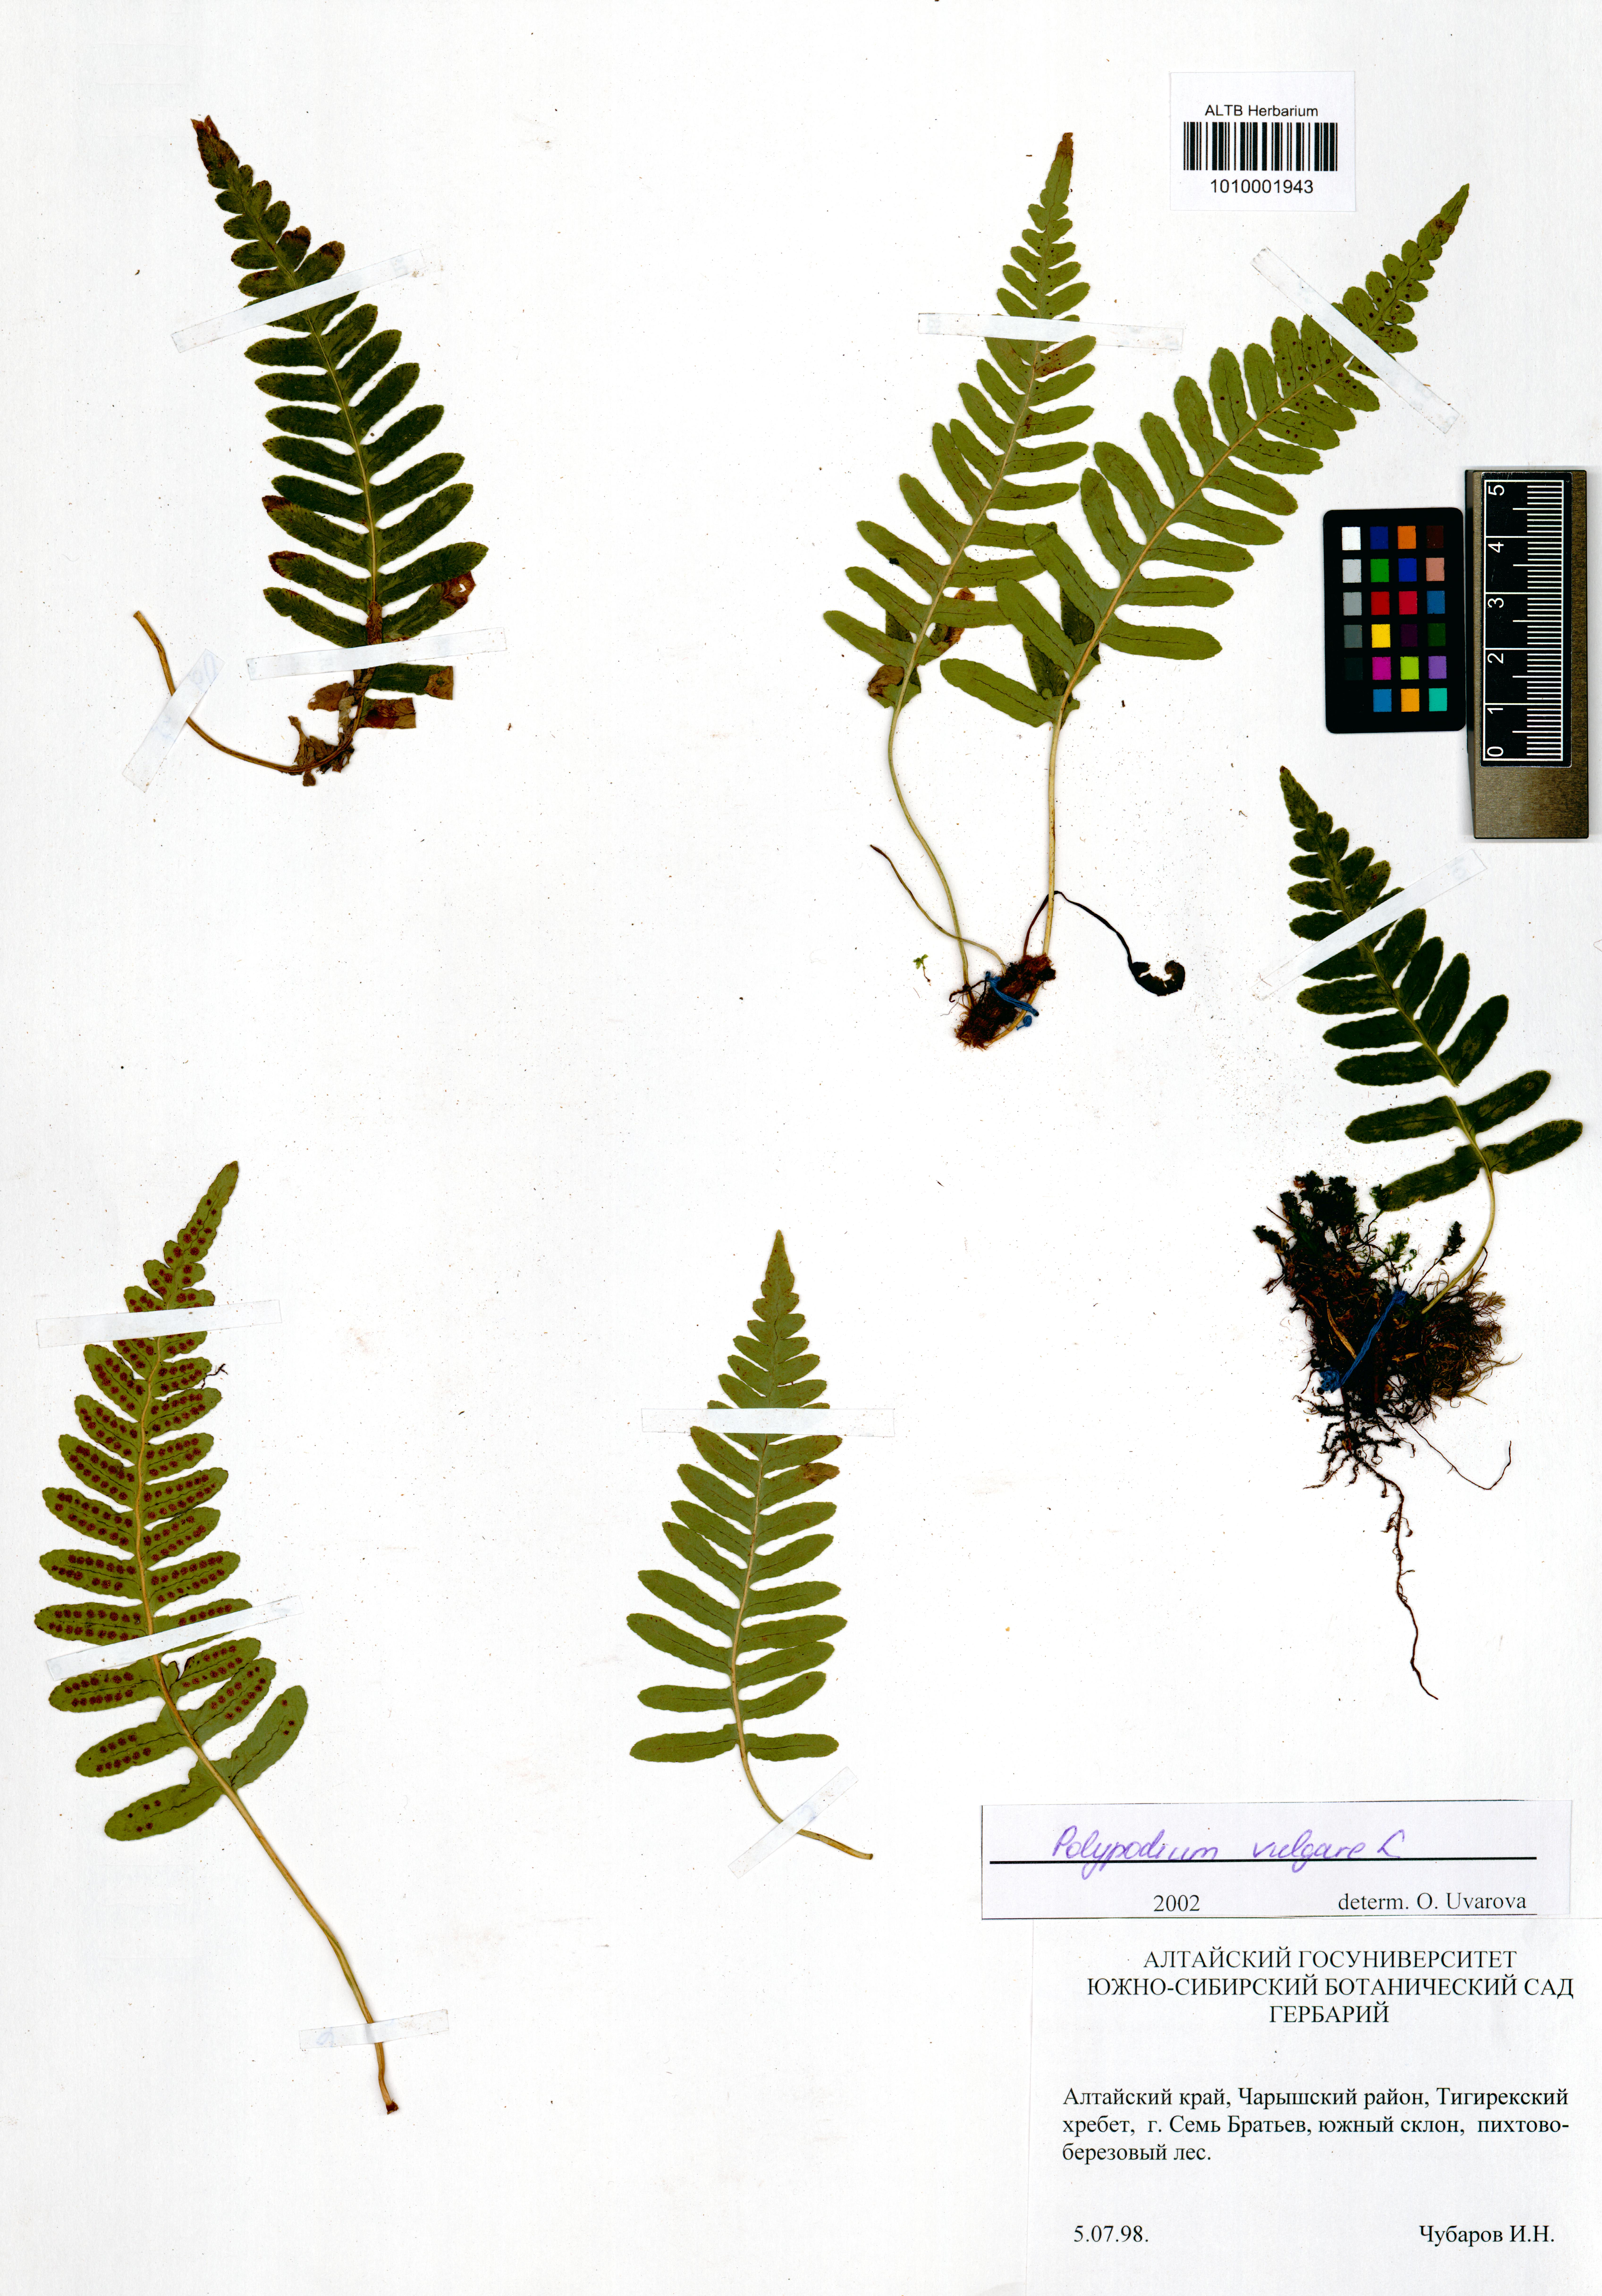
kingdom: Plantae
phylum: Tracheophyta
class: Polypodiopsida
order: Polypodiales
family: Polypodiaceae
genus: Polypodium
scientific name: Polypodium vulgare
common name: Common polypody
